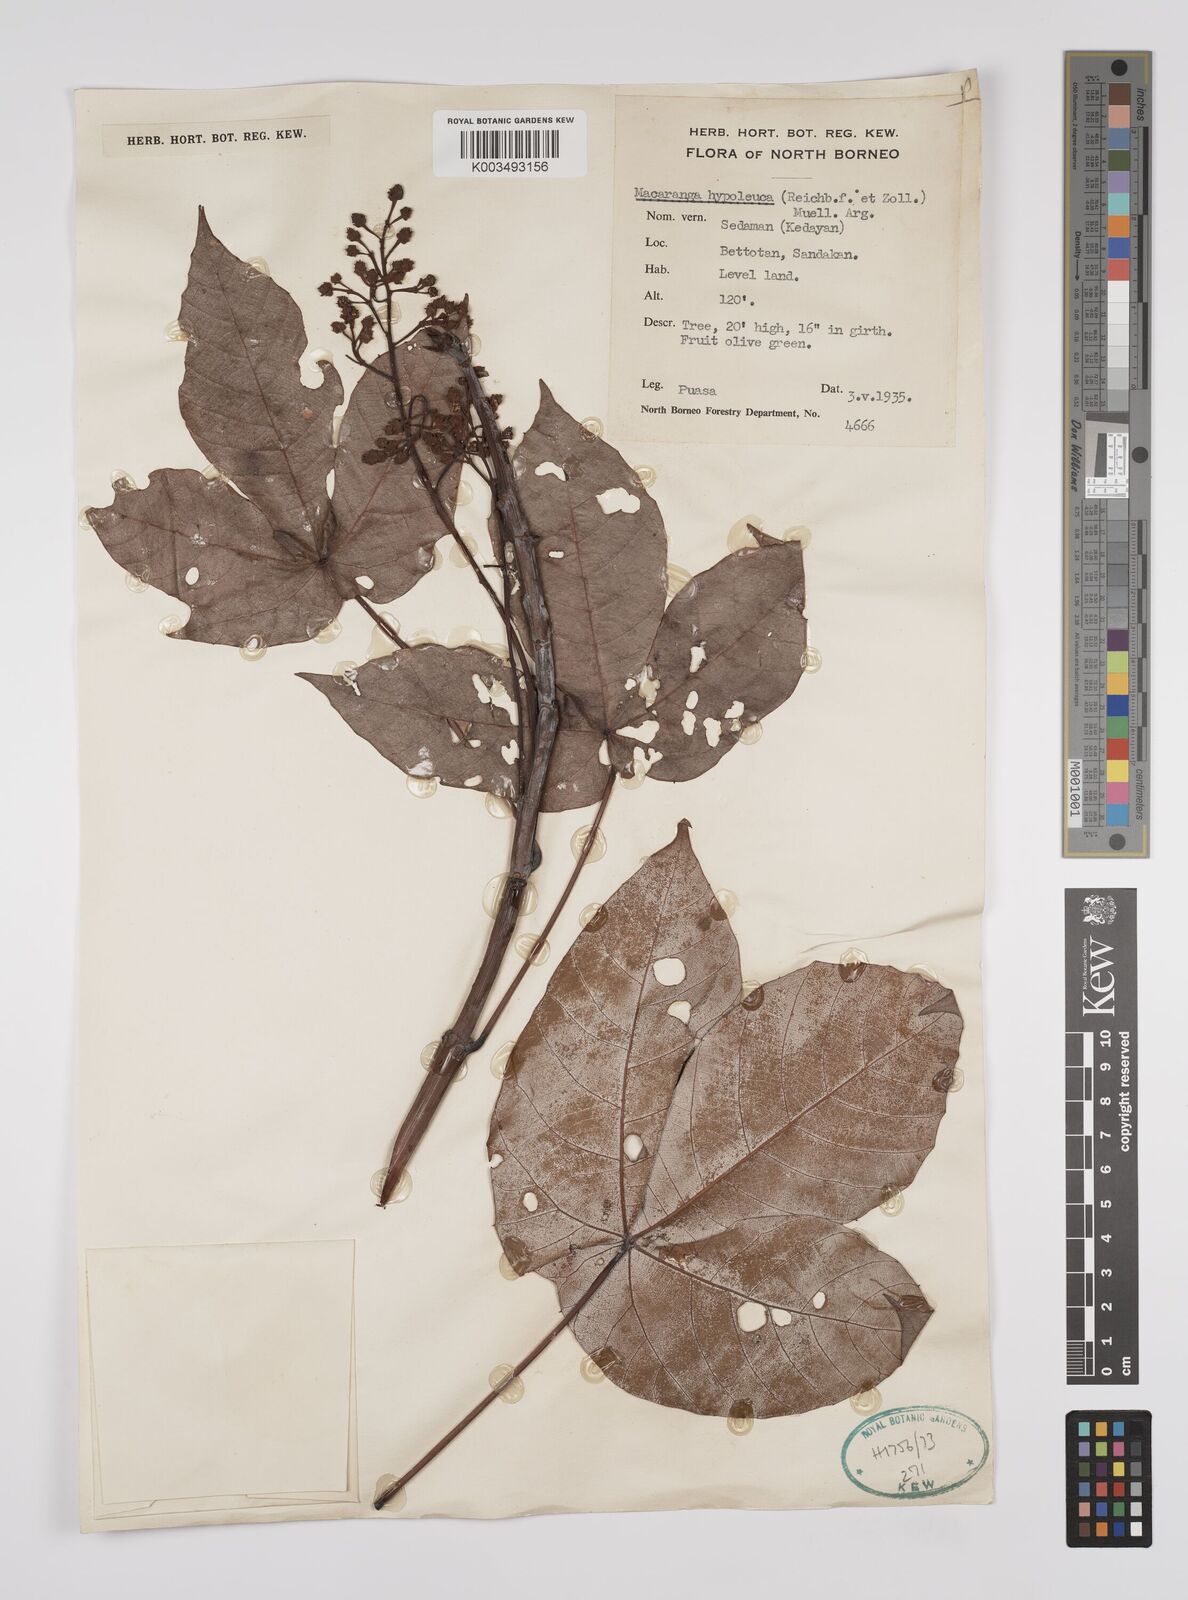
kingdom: Plantae
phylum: Tracheophyta
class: Magnoliopsida
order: Malpighiales
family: Euphorbiaceae
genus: Macaranga
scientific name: Macaranga hypoleuca
